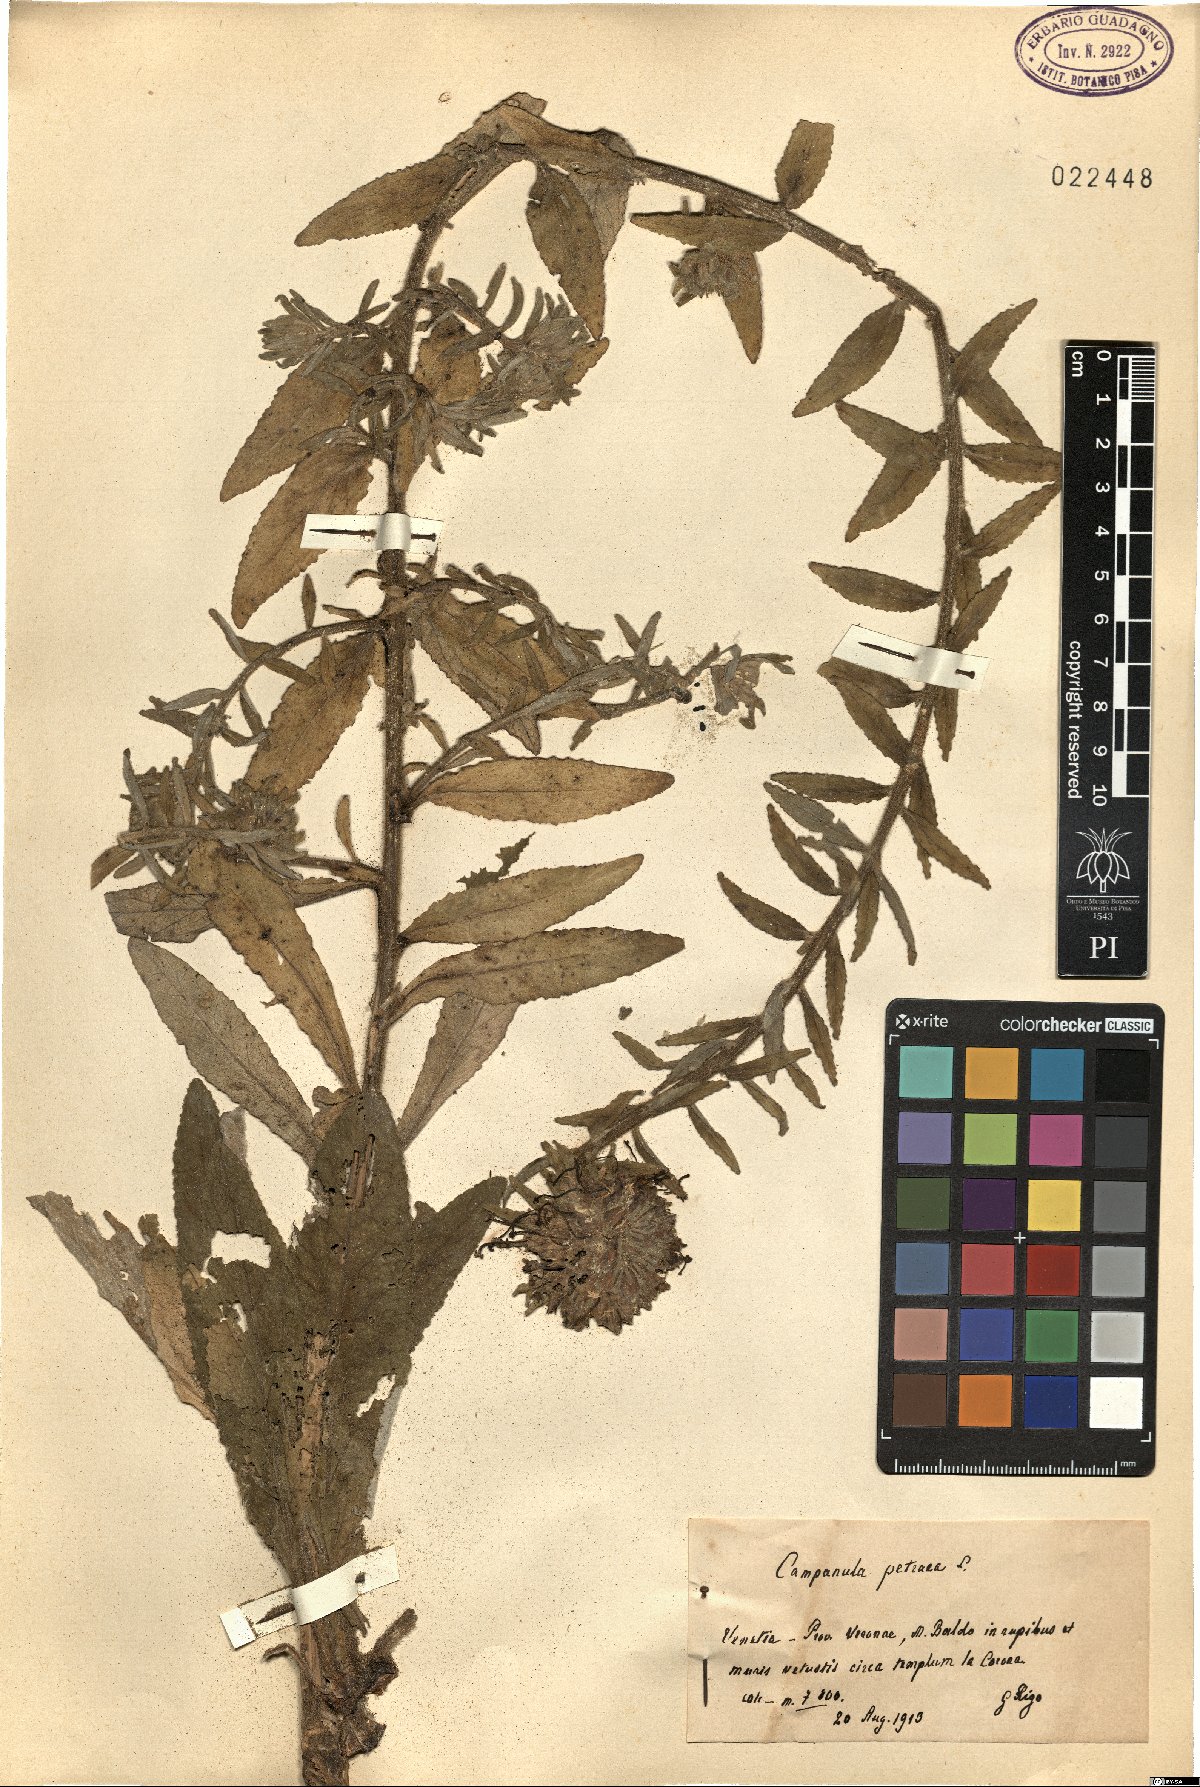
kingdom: Plantae
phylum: Tracheophyta
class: Magnoliopsida
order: Asterales
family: Campanulaceae
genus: Campanula
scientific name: Campanula petraea
